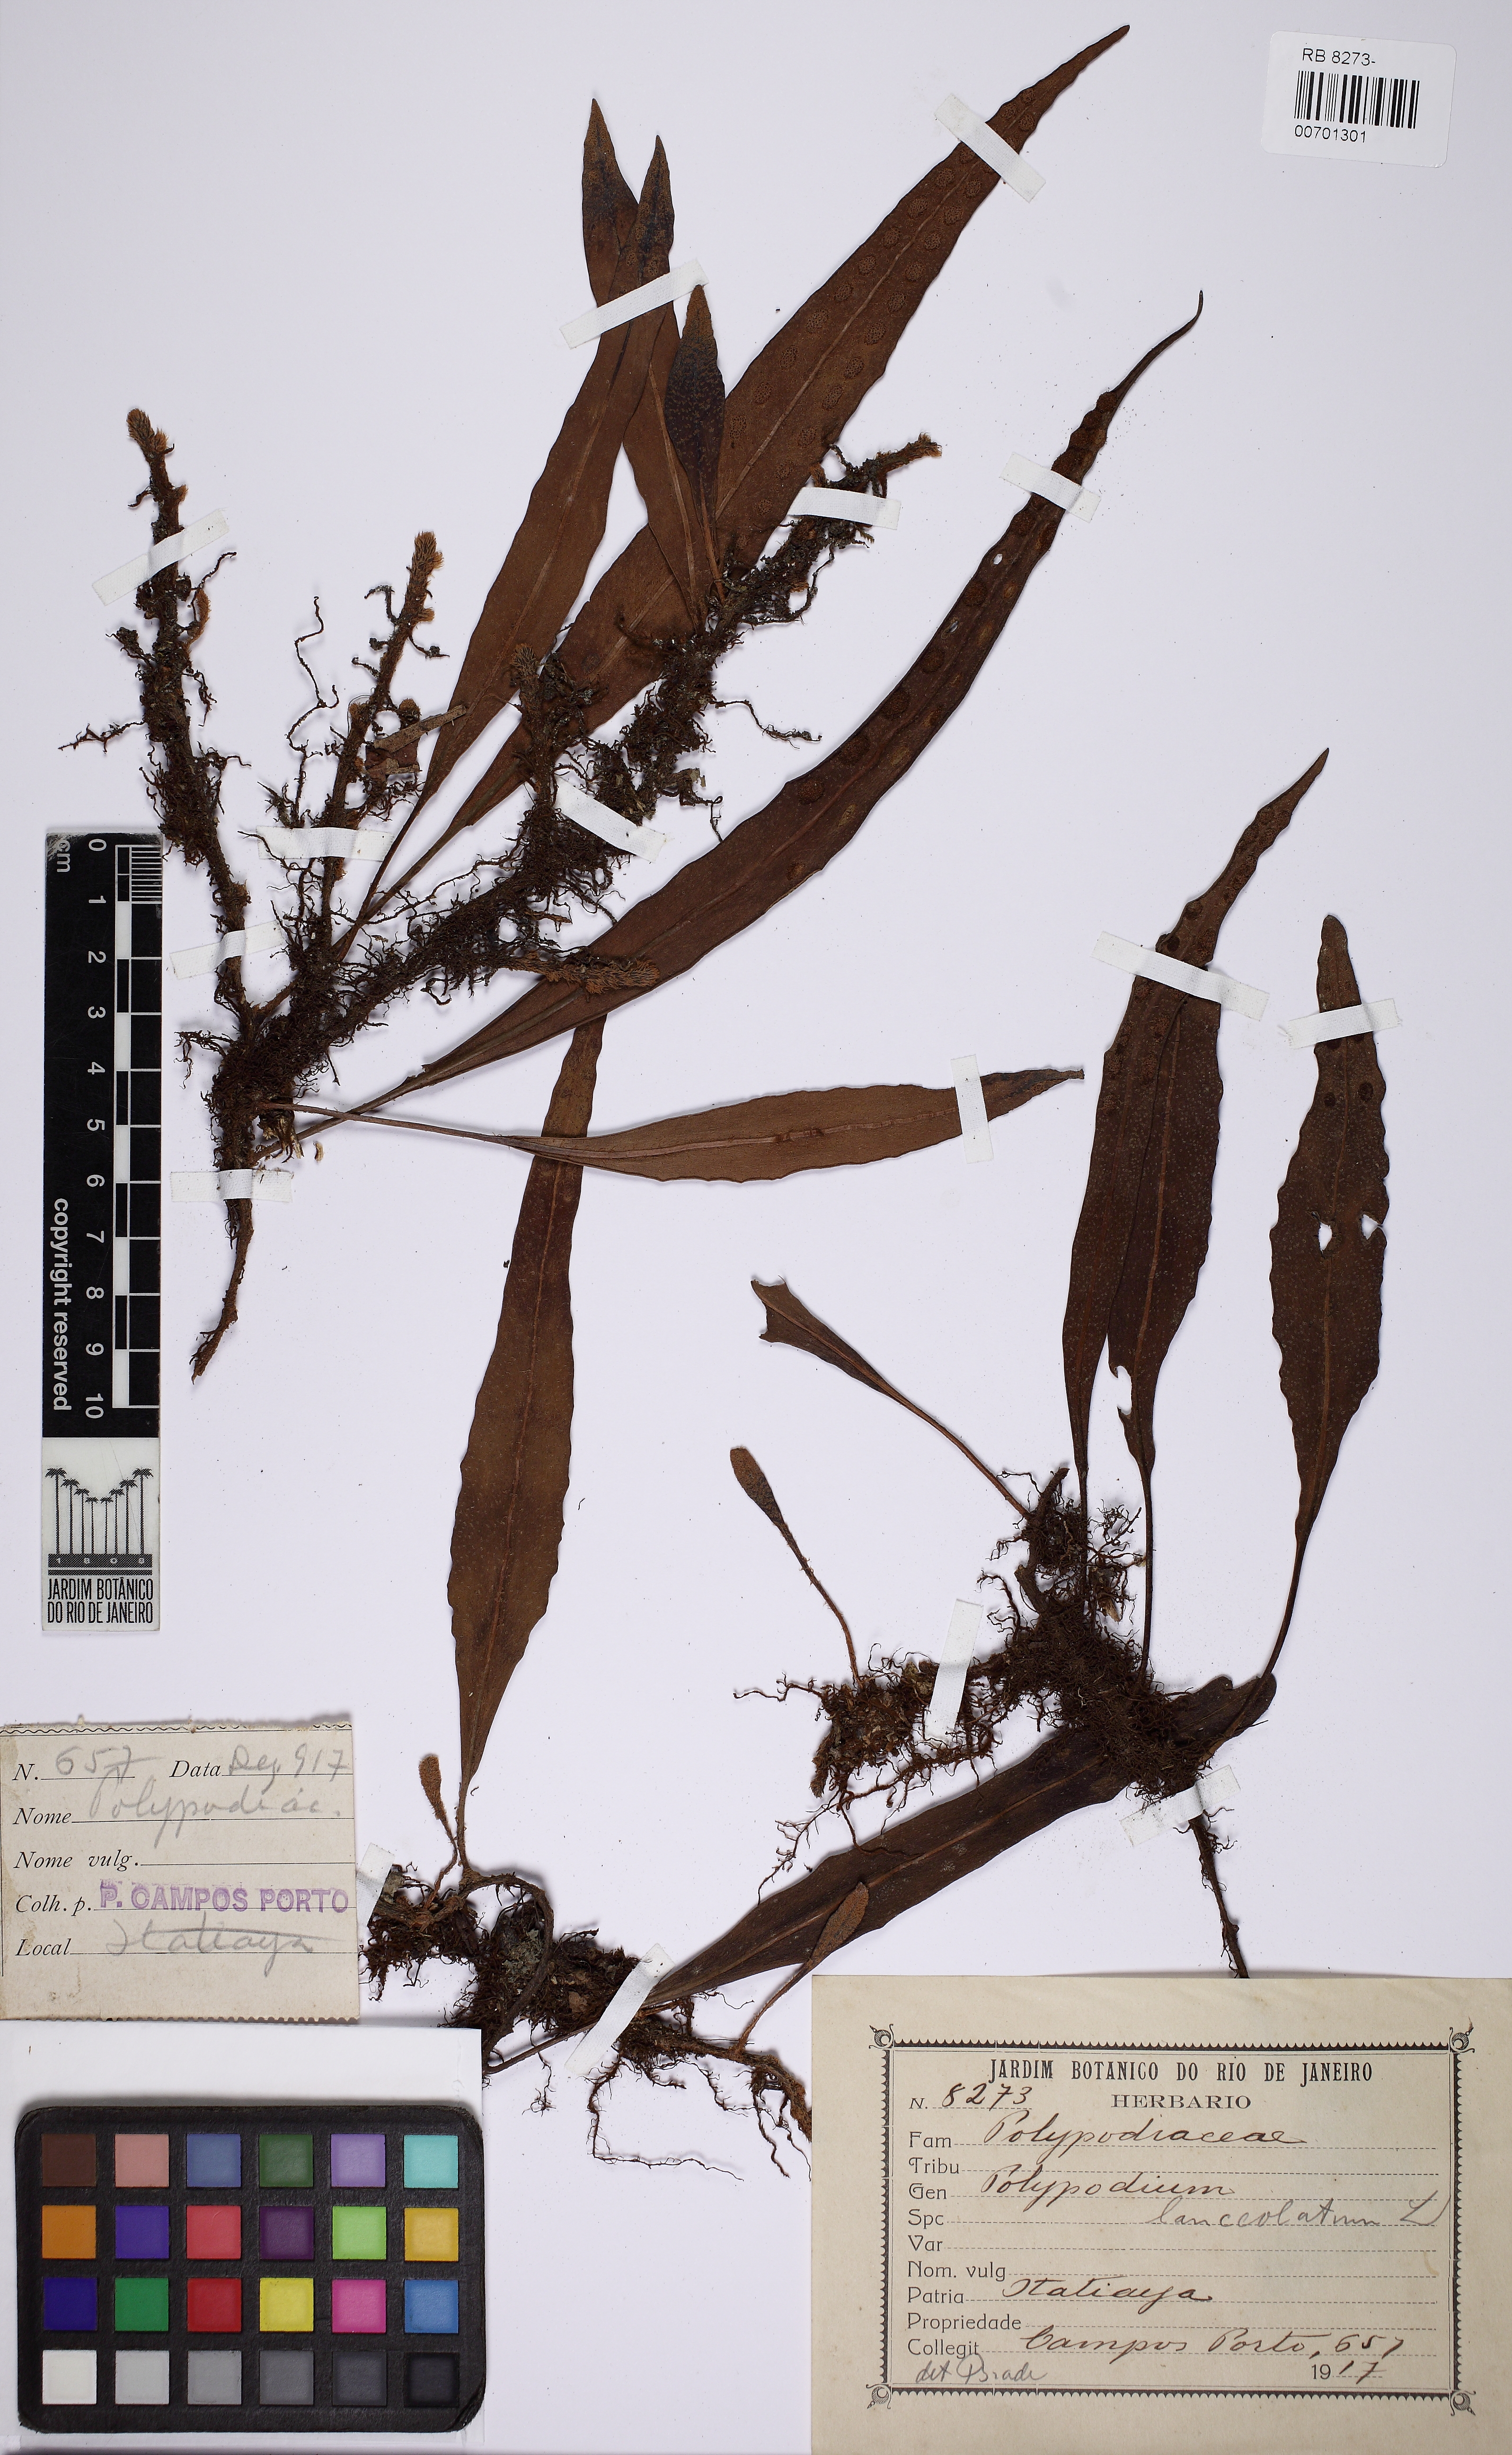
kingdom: Plantae
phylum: Tracheophyta
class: Polypodiopsida
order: Polypodiales
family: Polypodiaceae
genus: Pleopeltis
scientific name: Pleopeltis macrocarpa
